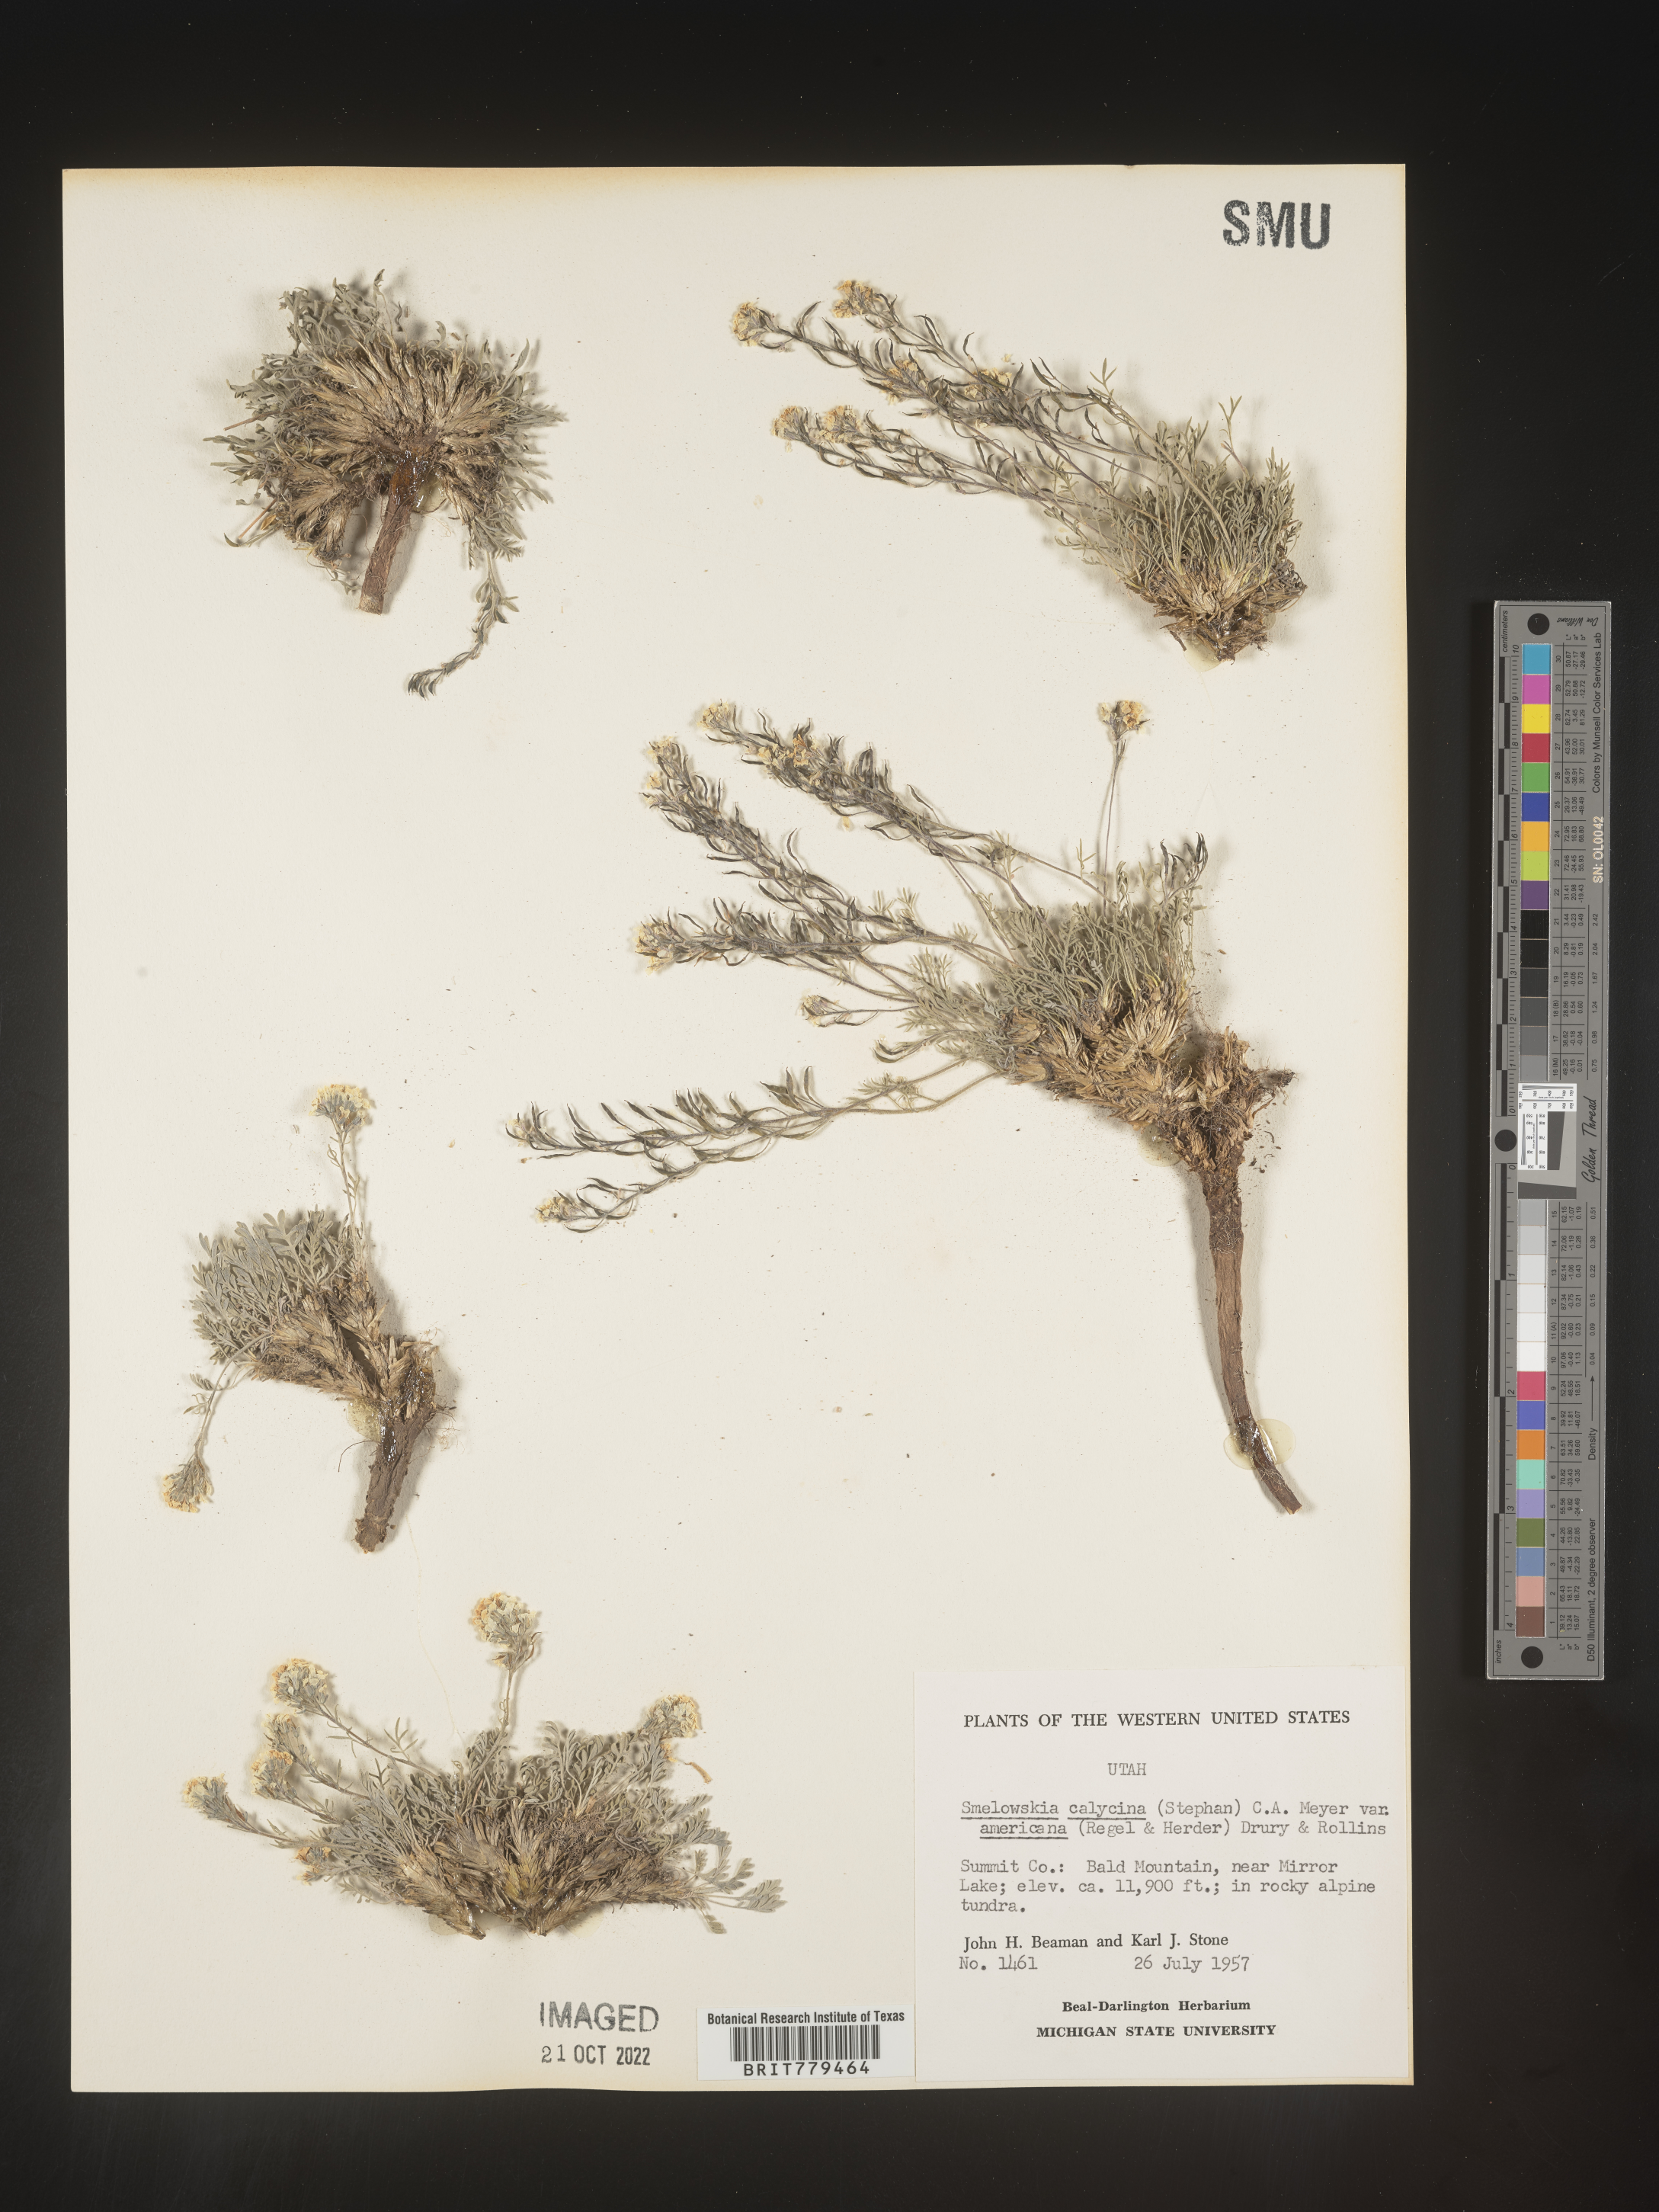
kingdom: Plantae
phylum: Tracheophyta
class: Magnoliopsida
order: Brassicales
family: Brassicaceae
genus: Smelowskia
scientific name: Smelowskia
